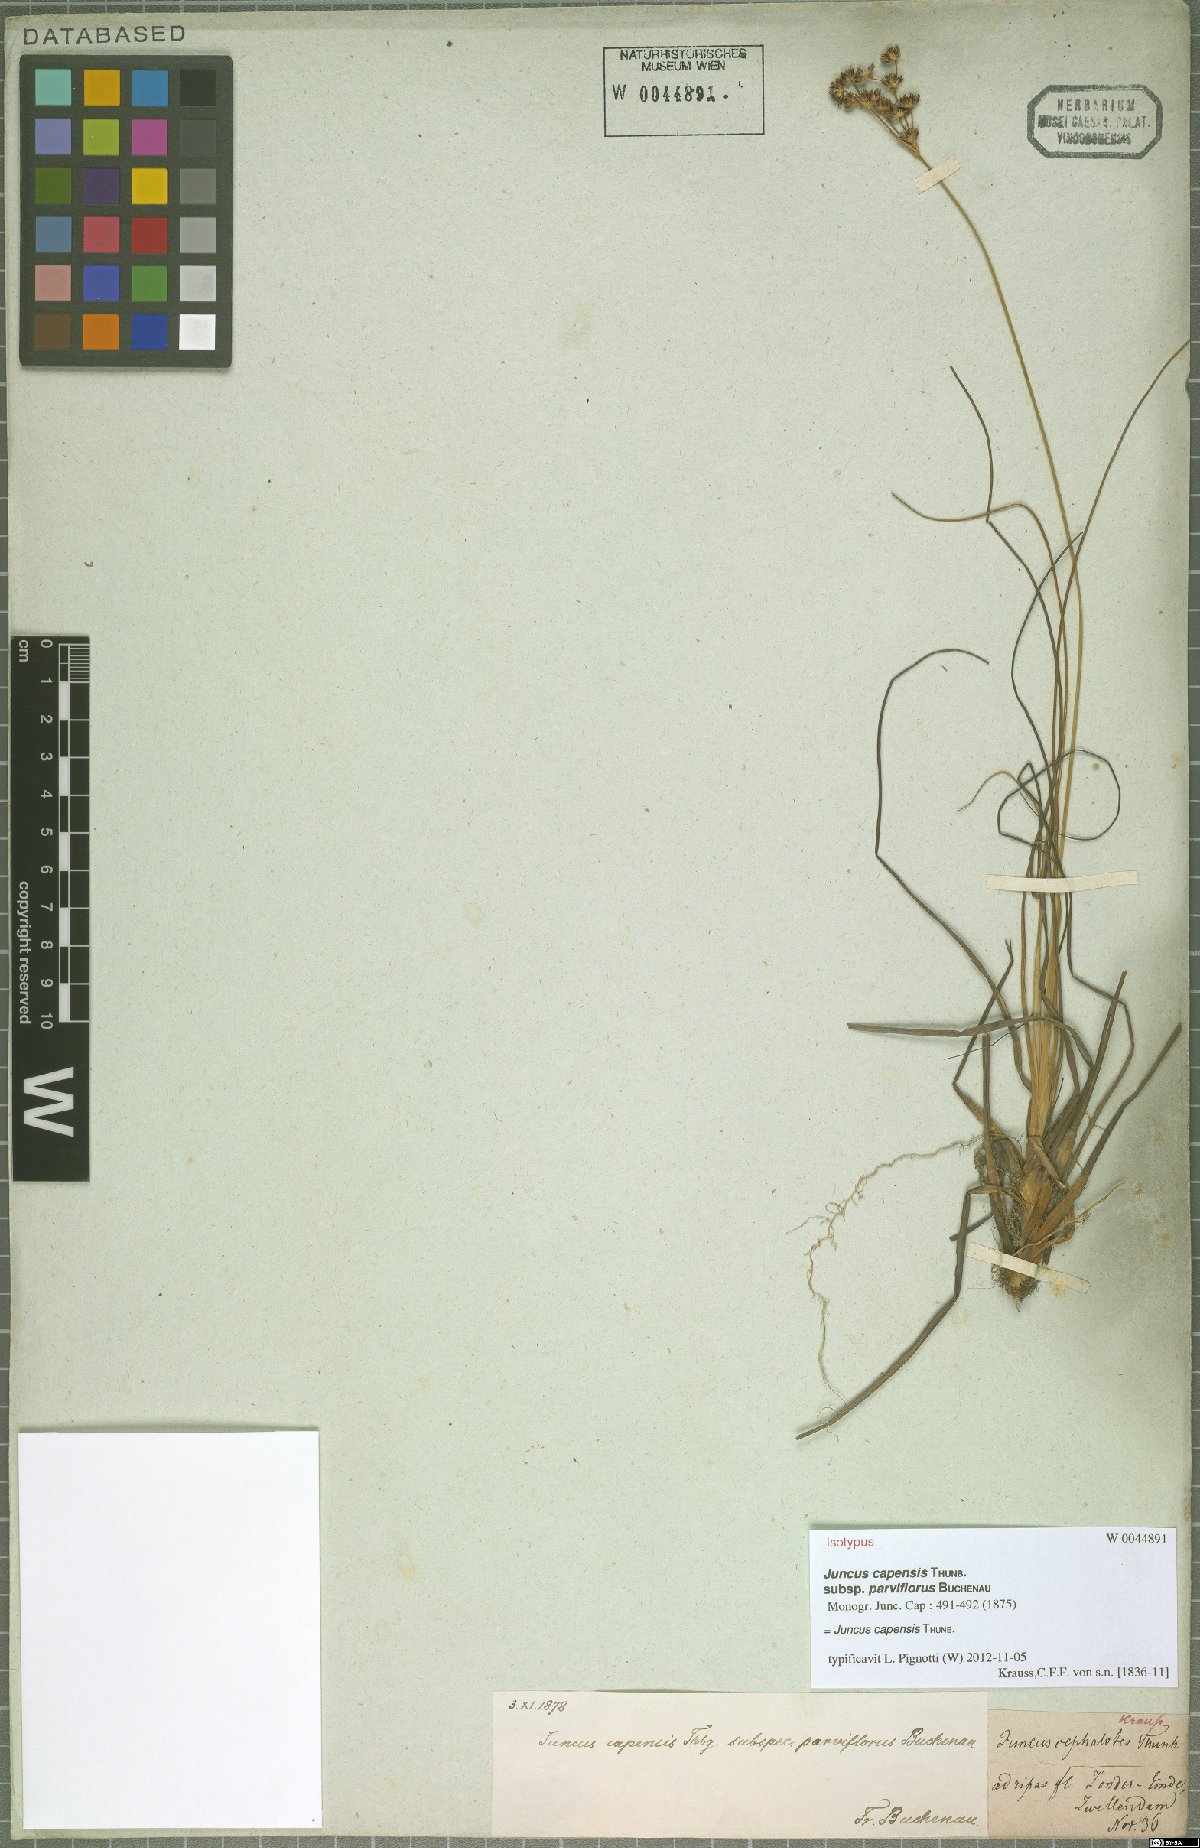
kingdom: Plantae
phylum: Tracheophyta
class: Liliopsida
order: Poales
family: Juncaceae
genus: Juncus
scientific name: Juncus capensis
